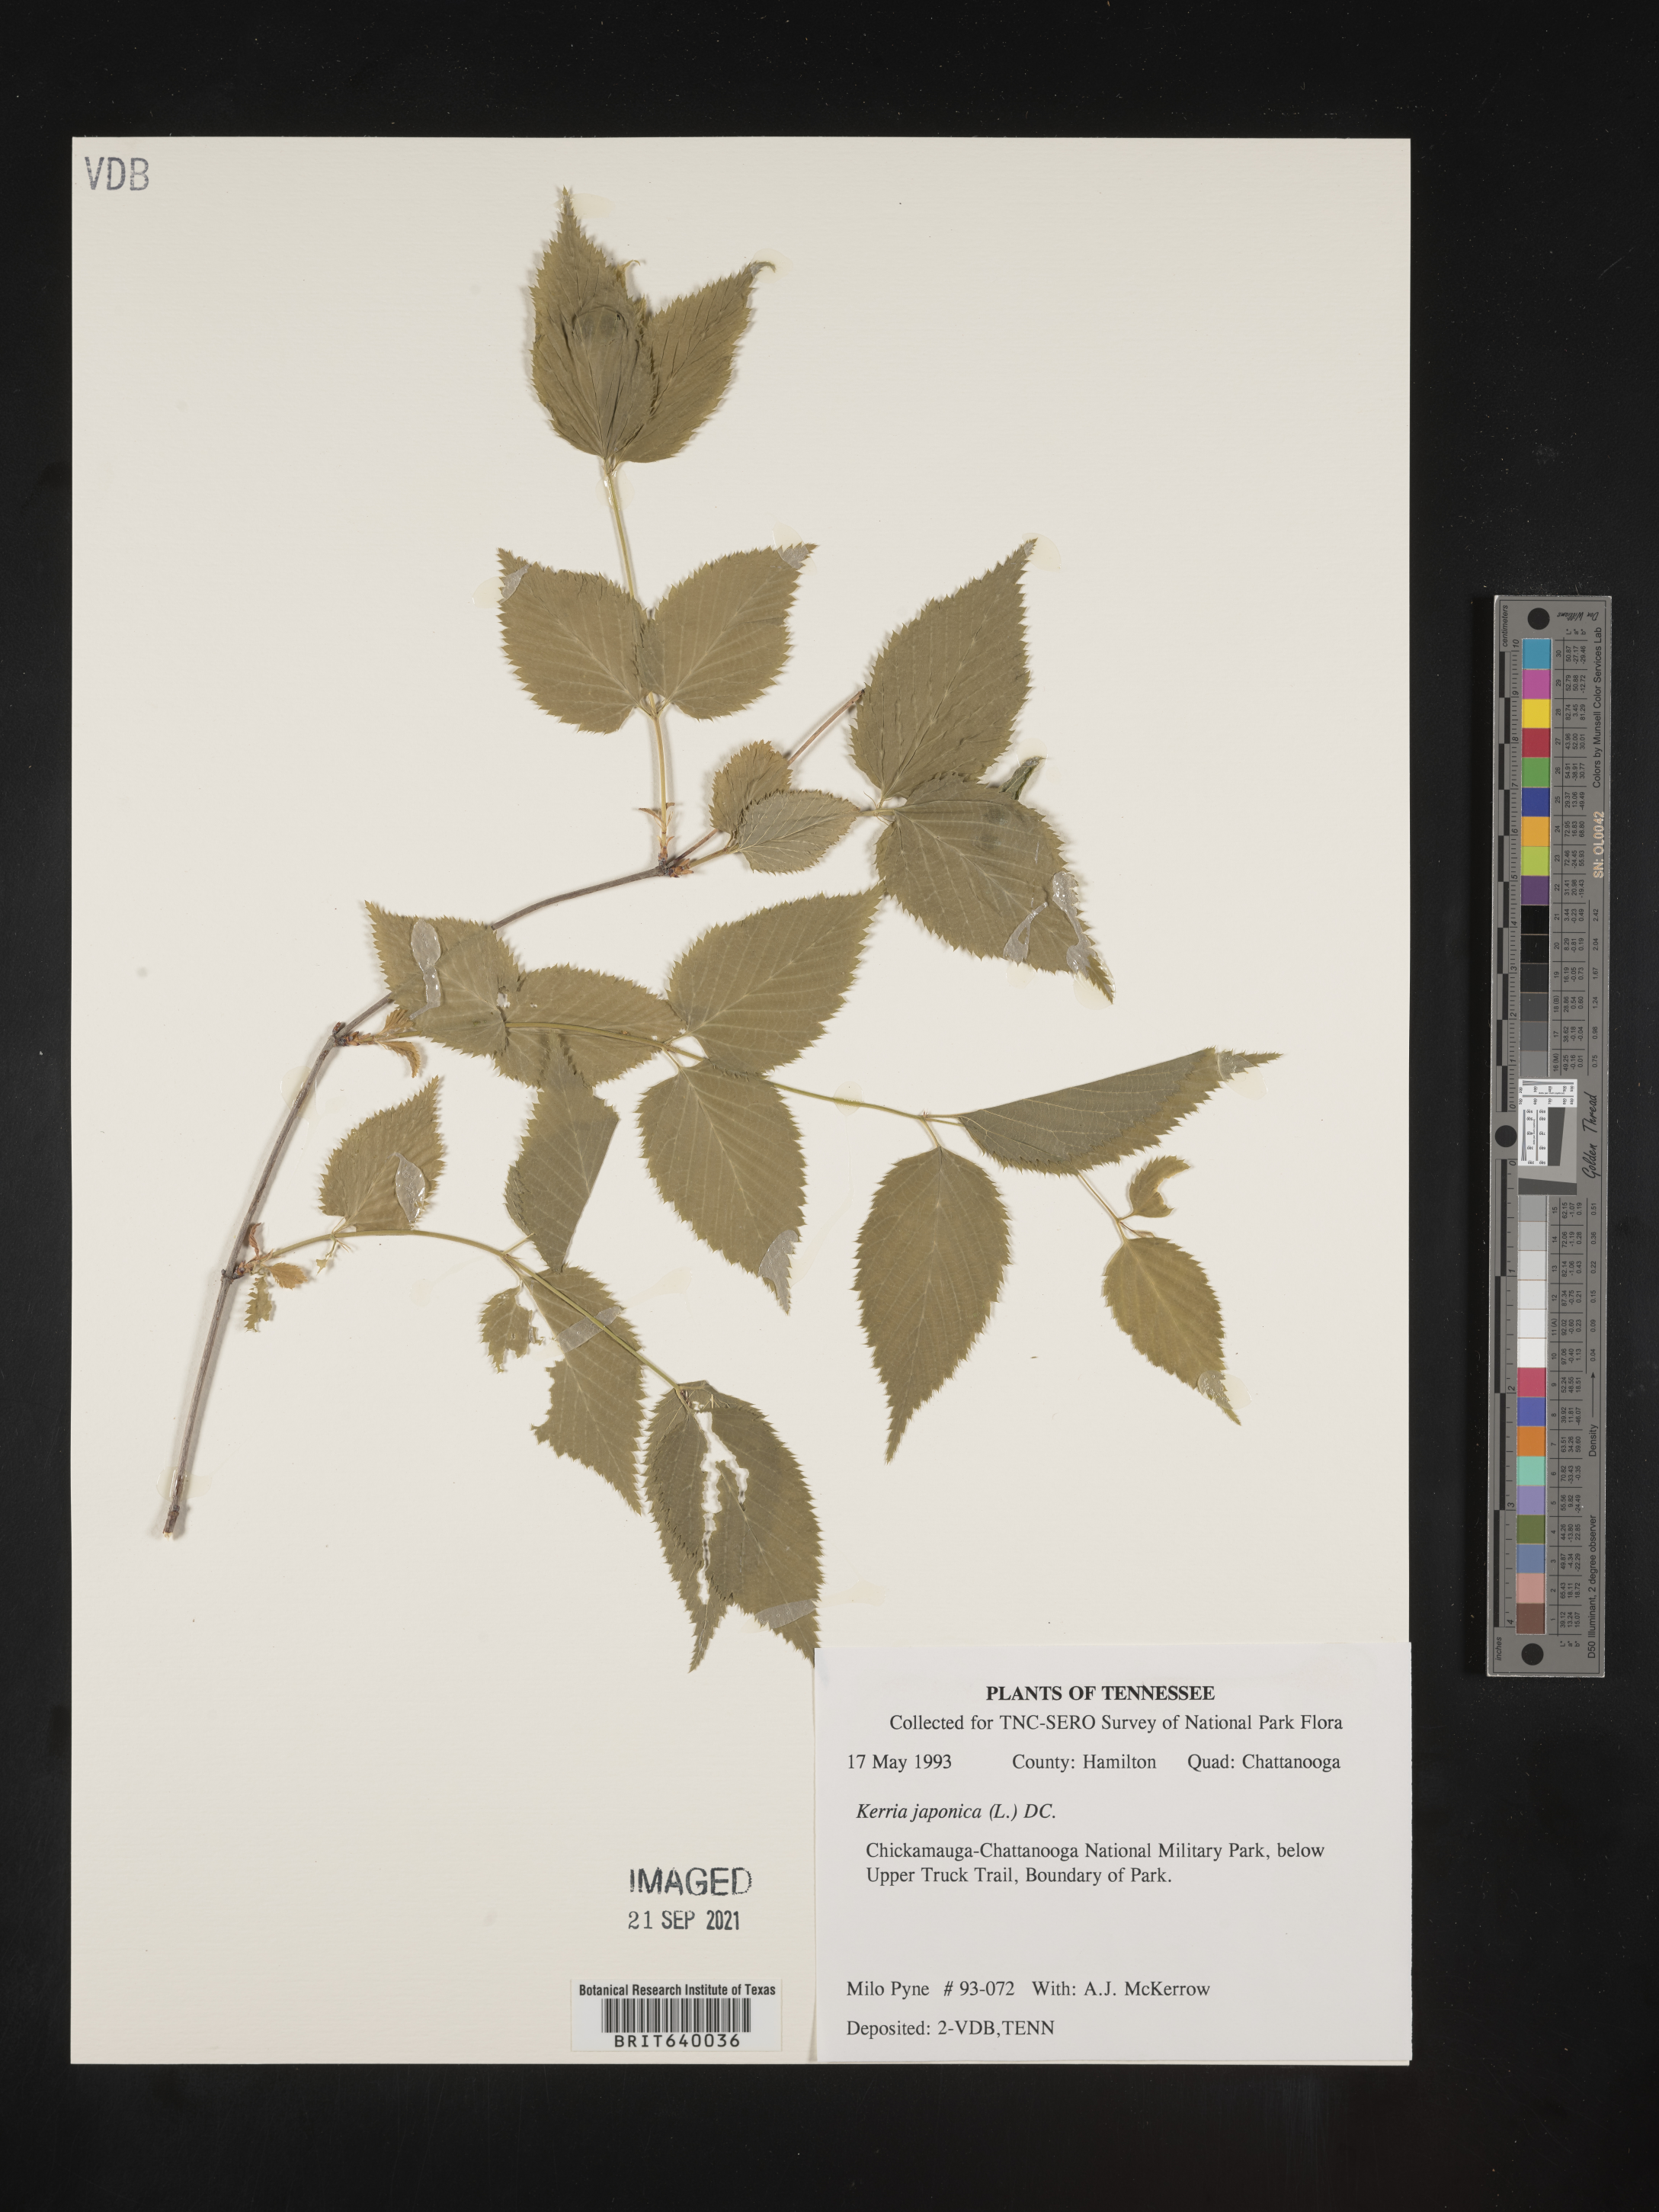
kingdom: Plantae
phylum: Tracheophyta
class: Magnoliopsida
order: Rosales
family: Rosaceae
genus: Kerria
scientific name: Kerria
